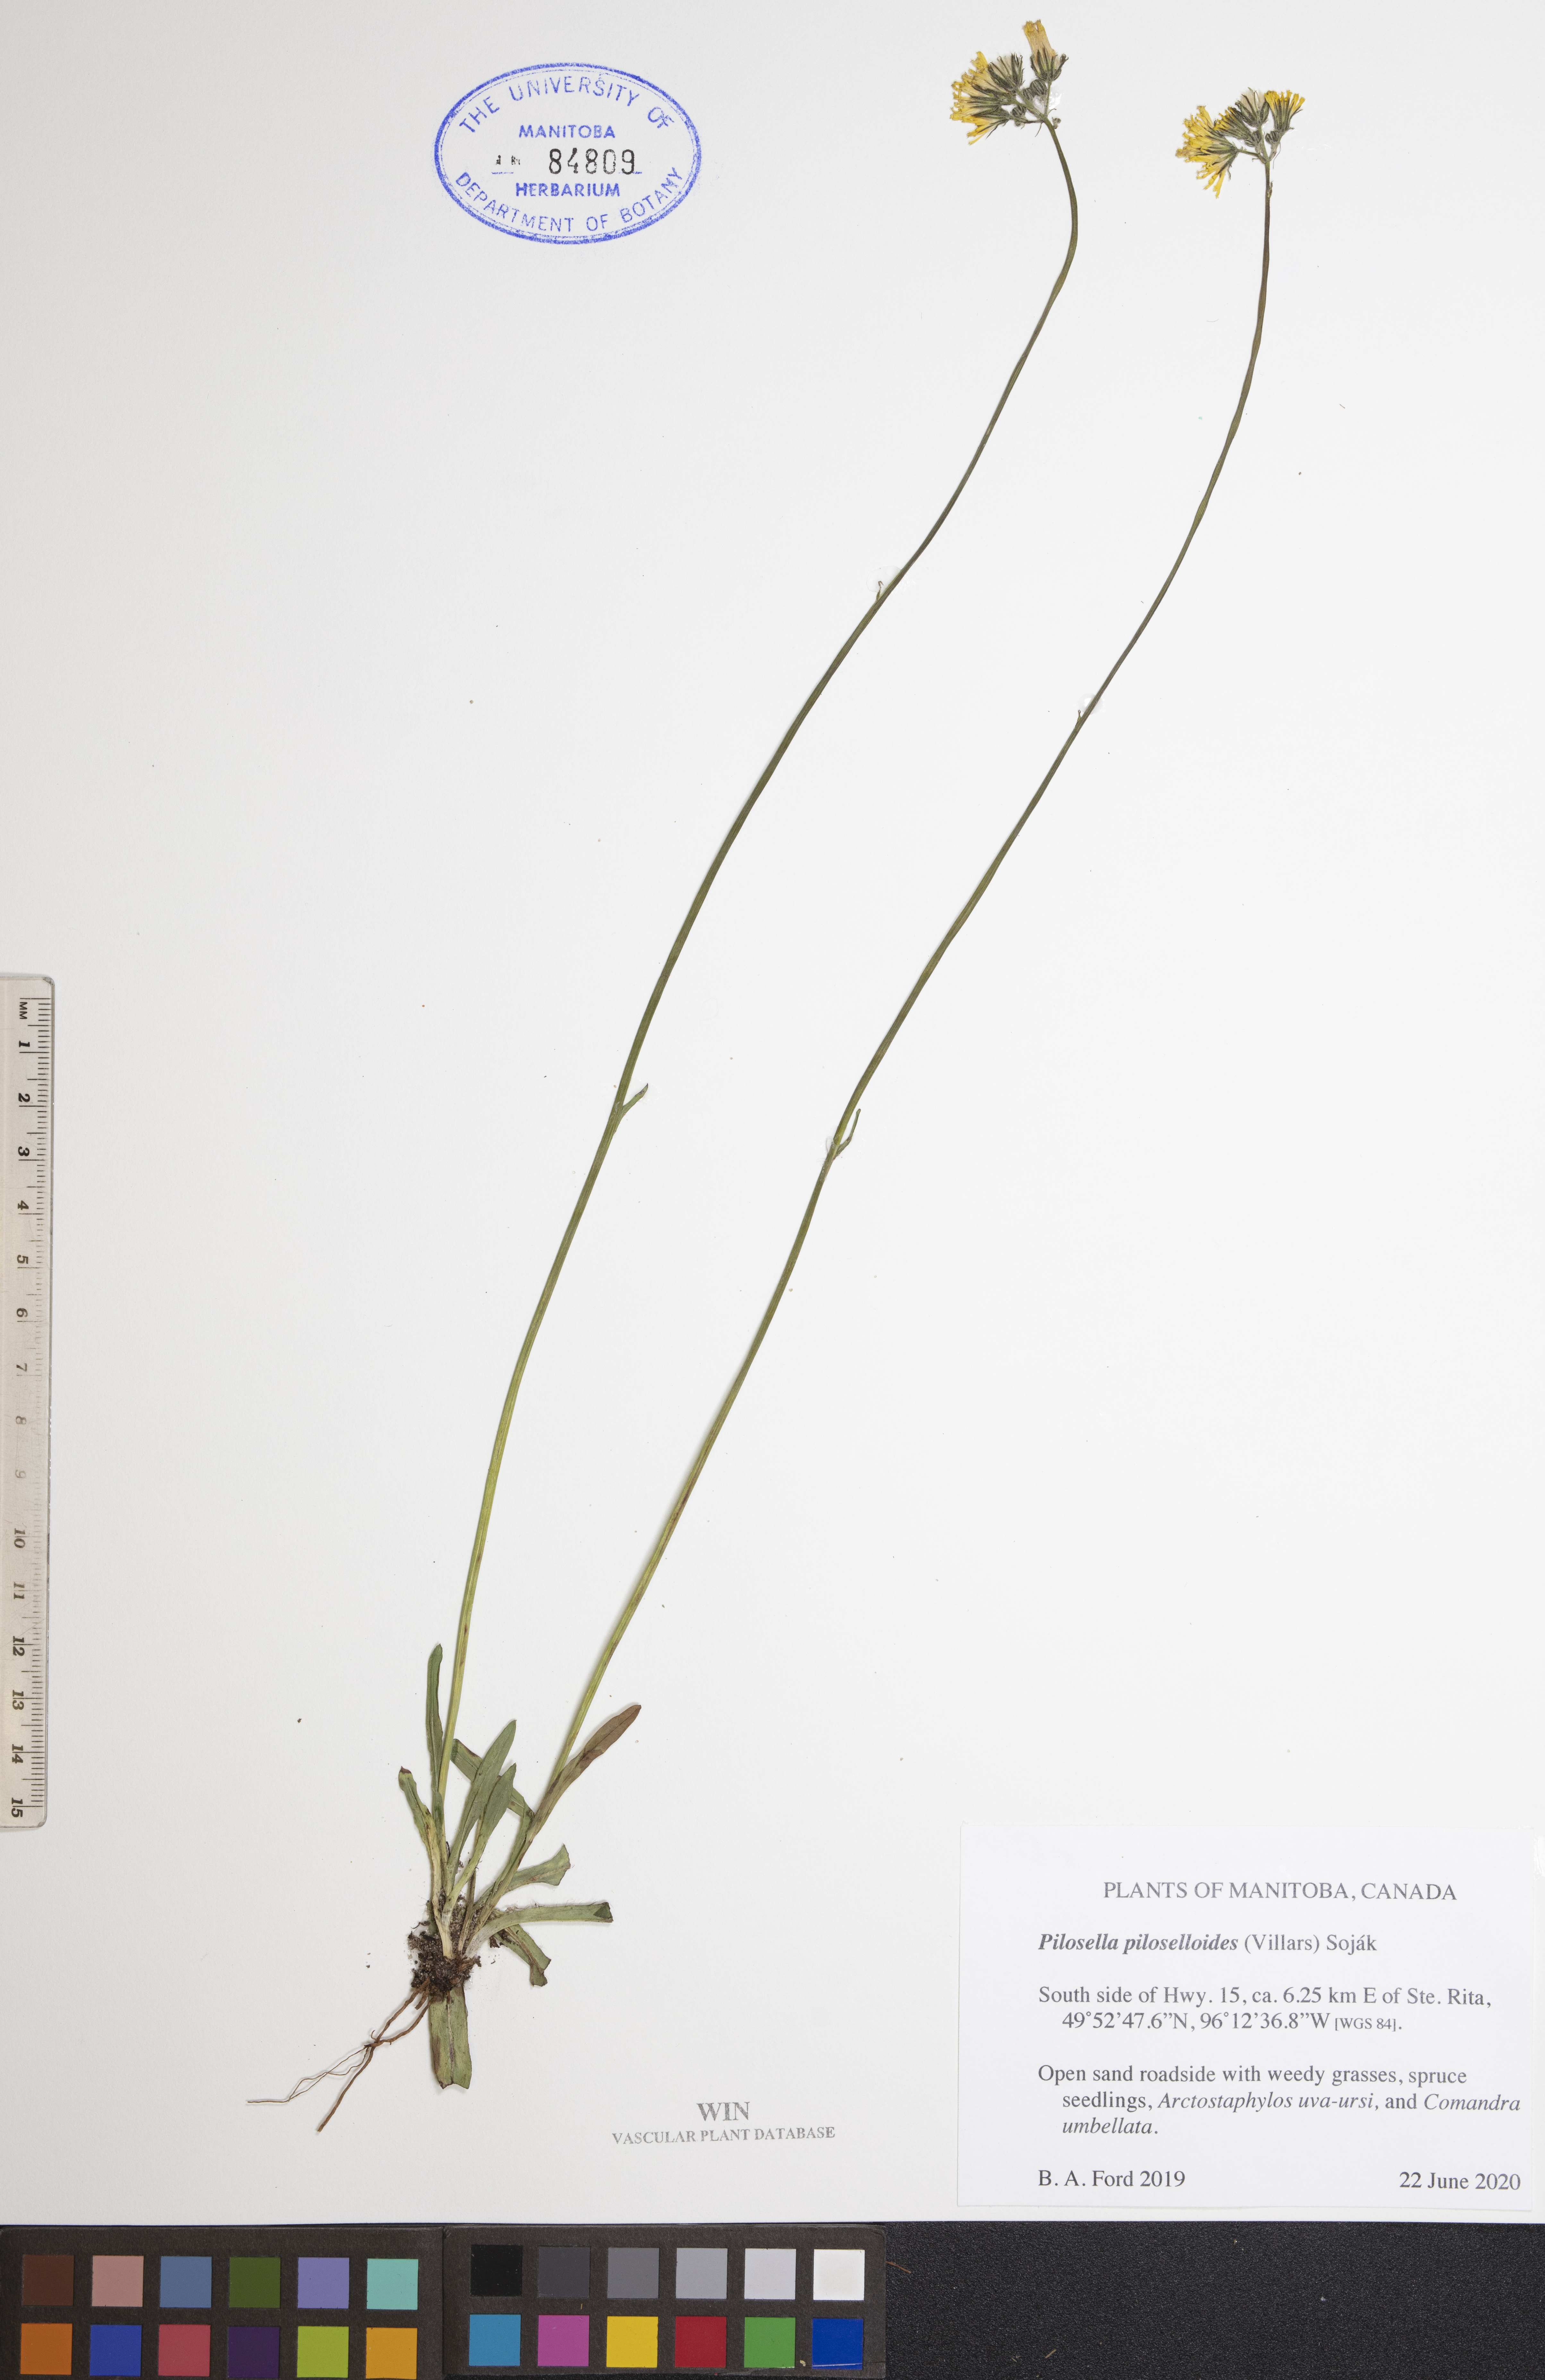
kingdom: Plantae
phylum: Tracheophyta
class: Magnoliopsida
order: Asterales
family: Asteraceae
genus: Pilosella
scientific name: Pilosella piloselloides
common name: Glaucous king-devil
